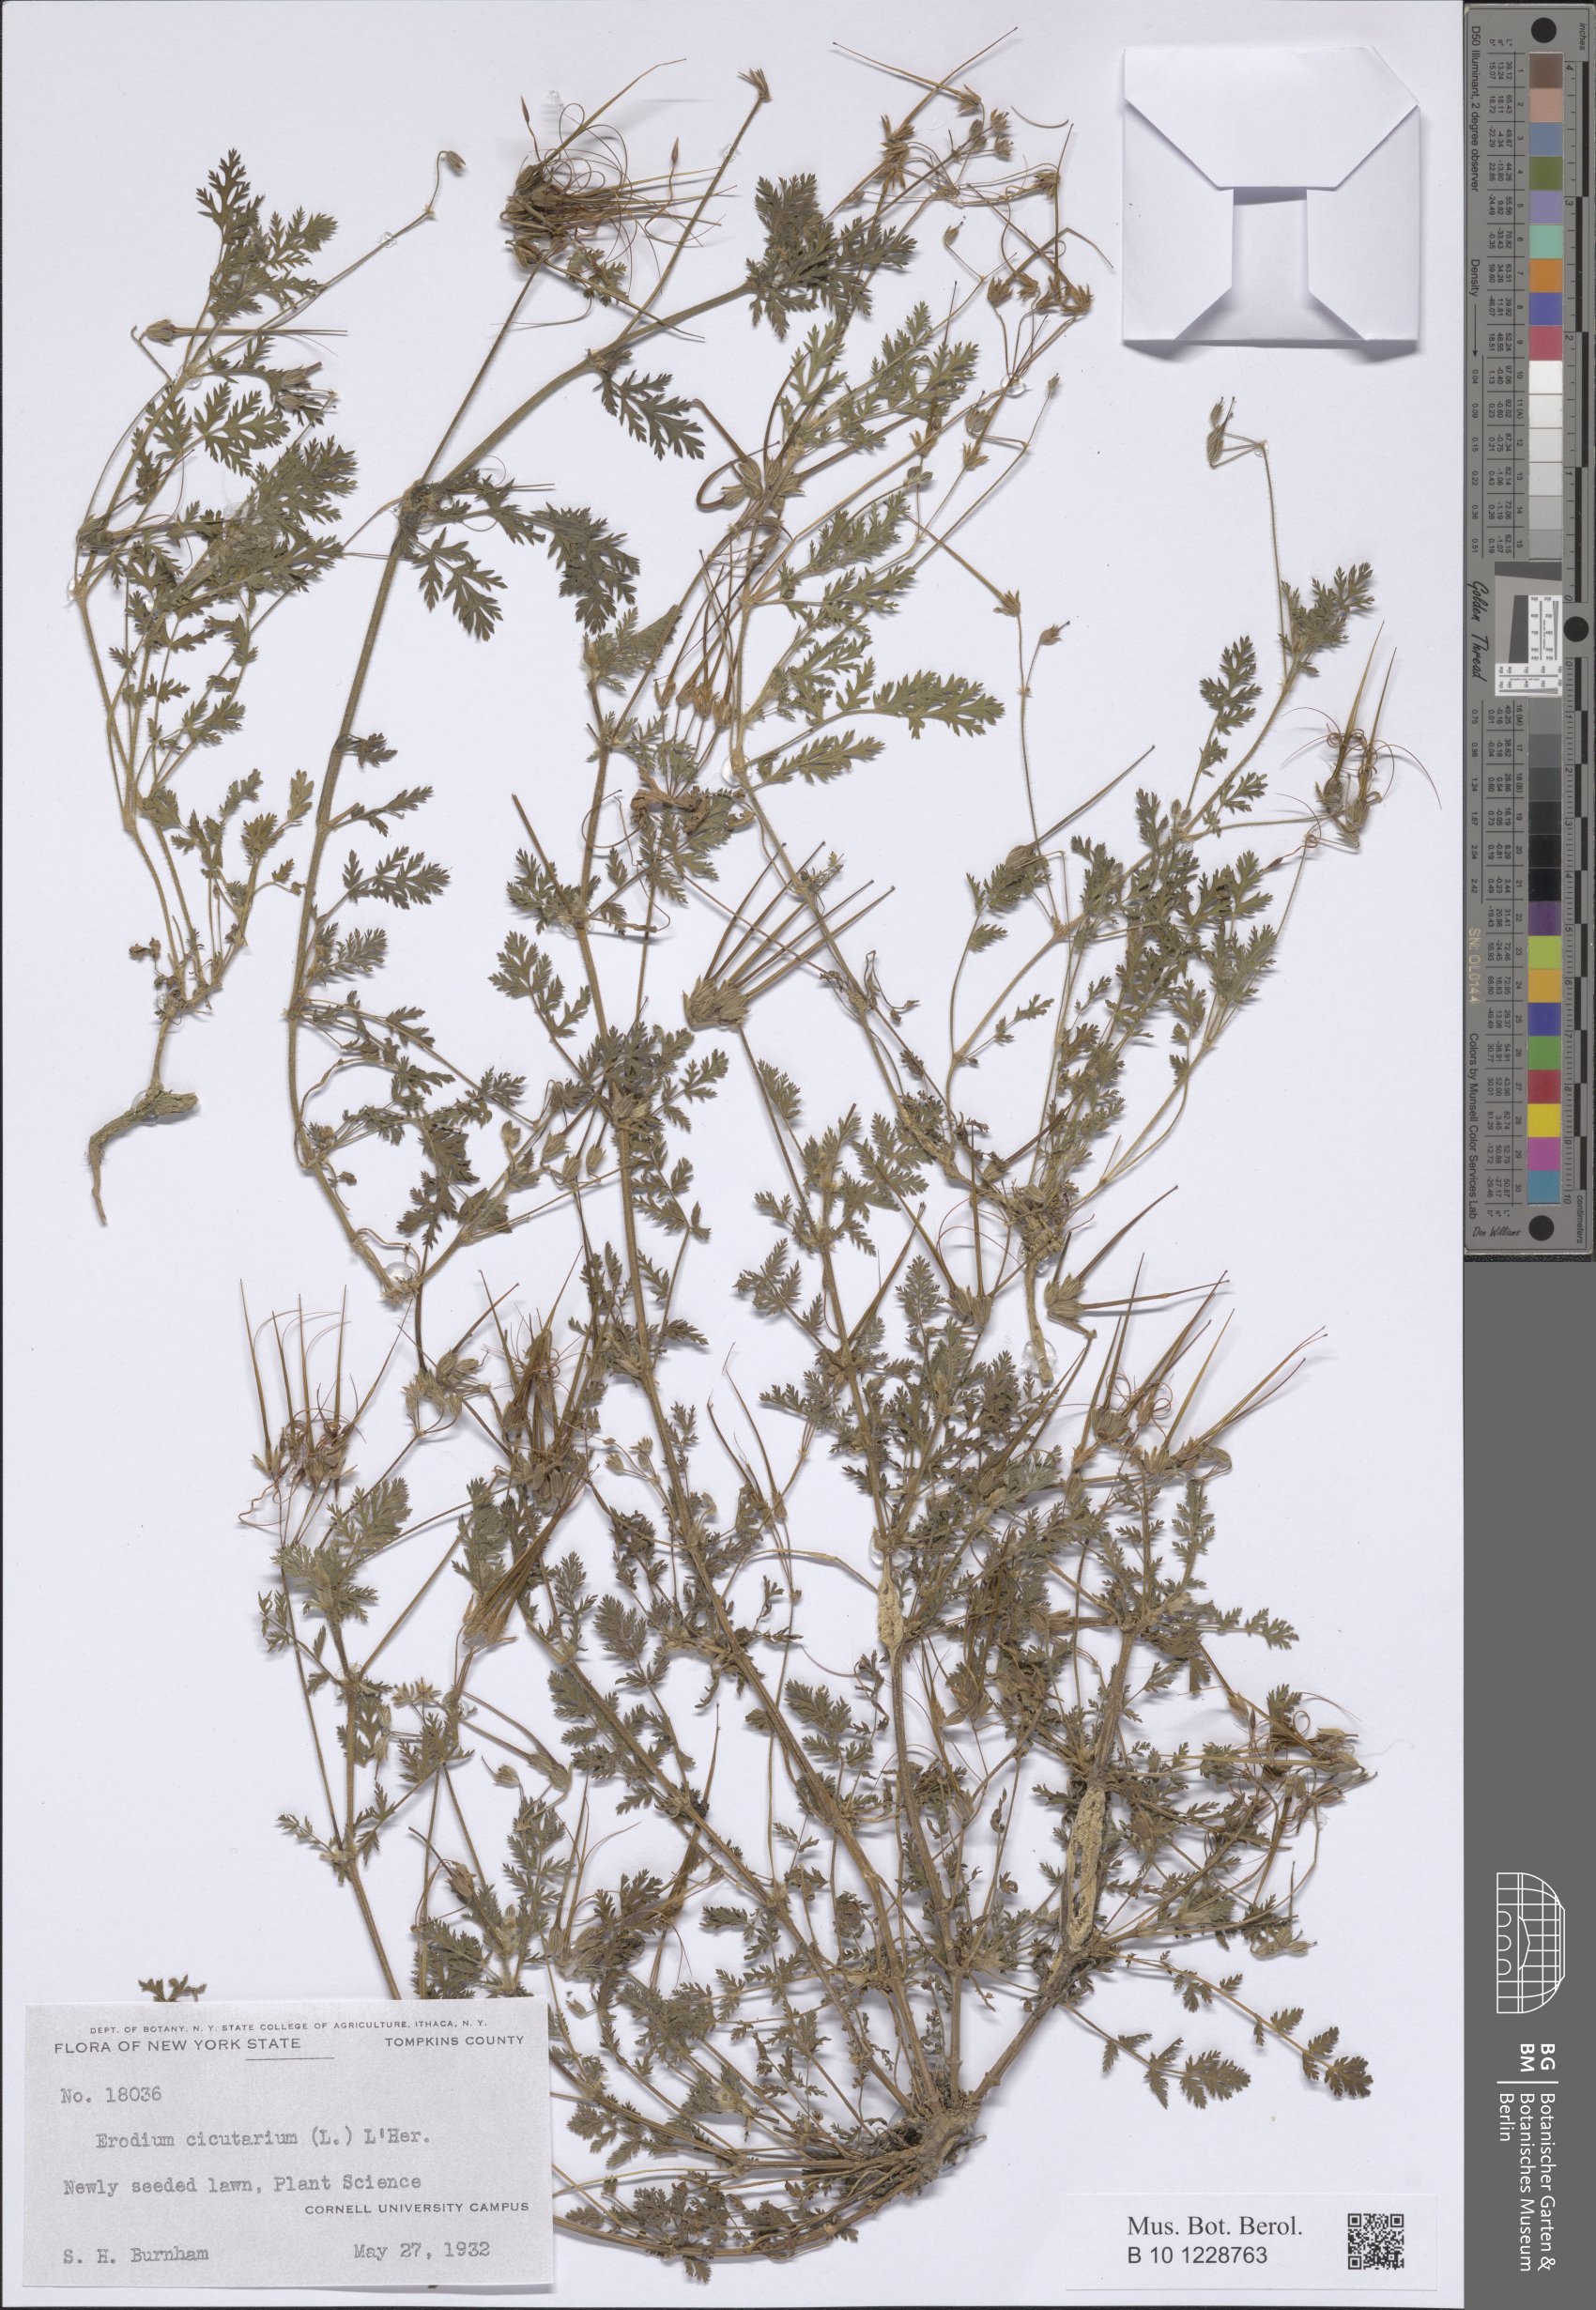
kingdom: Plantae
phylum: Tracheophyta
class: Magnoliopsida
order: Geraniales
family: Geraniaceae
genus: Erodium
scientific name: Erodium cicutarium
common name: Common stork's-bill
